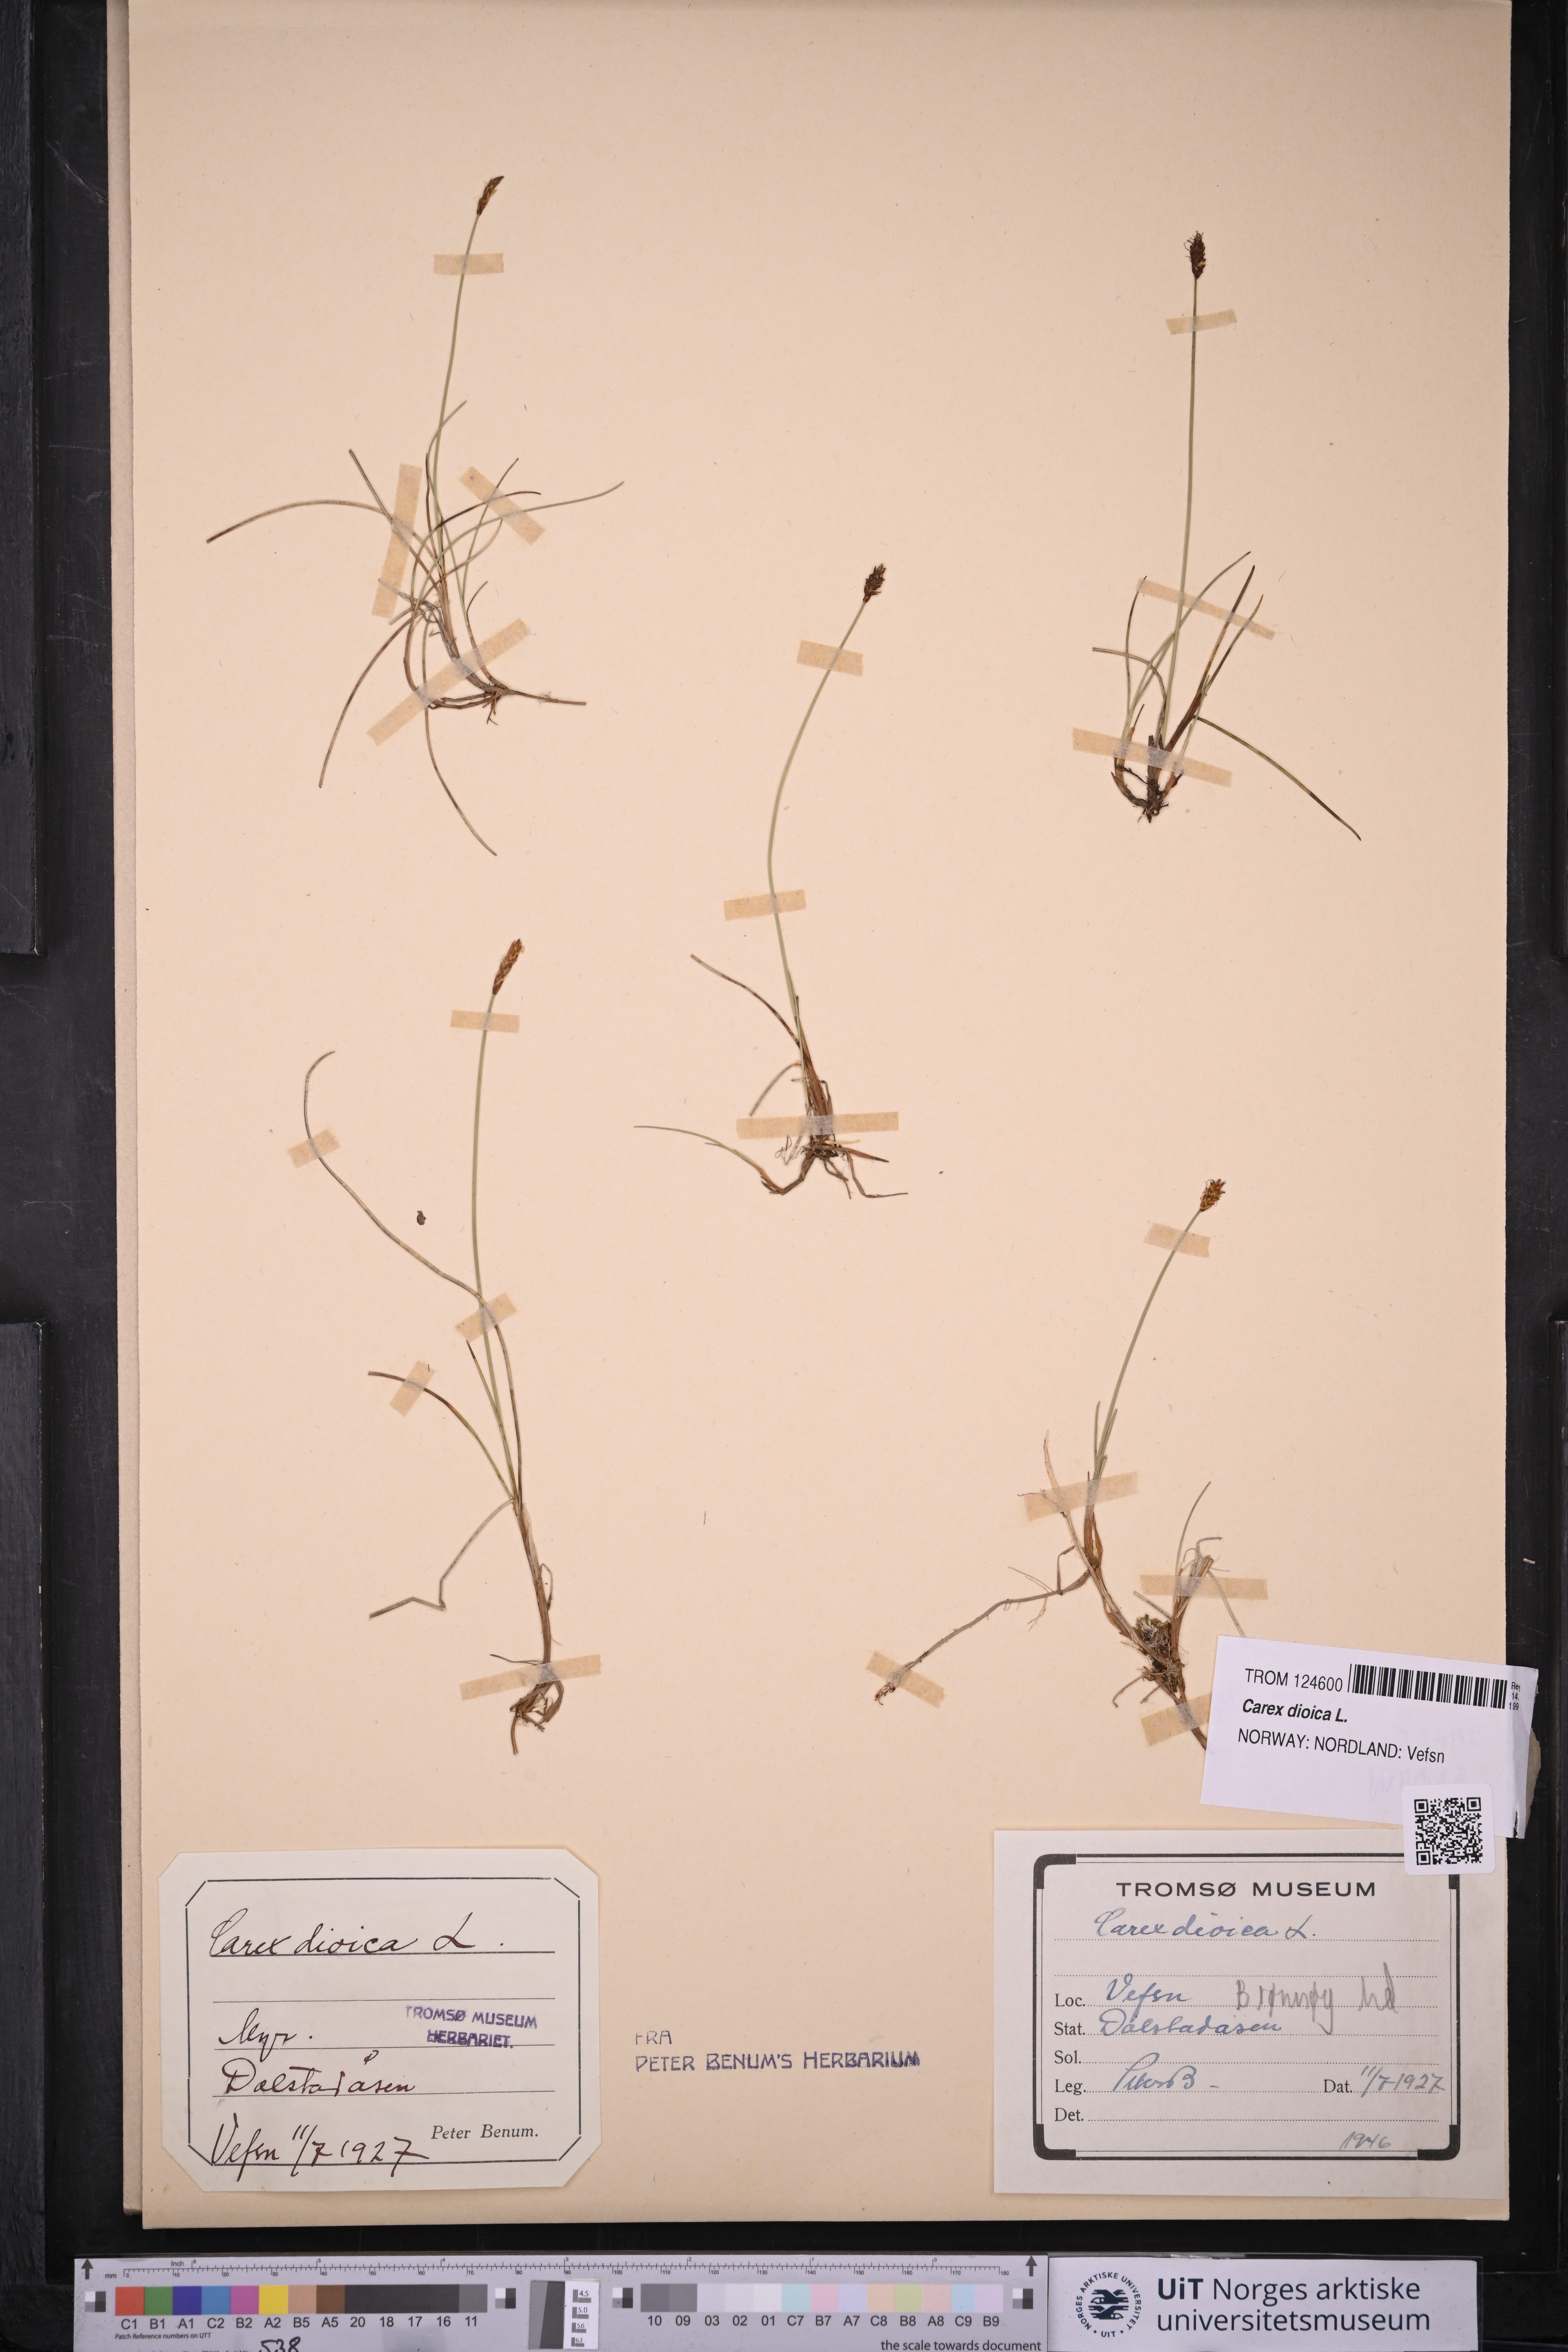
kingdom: Plantae
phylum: Tracheophyta
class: Liliopsida
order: Poales
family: Cyperaceae
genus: Carex
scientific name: Carex dioica
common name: Dioecious sedge
